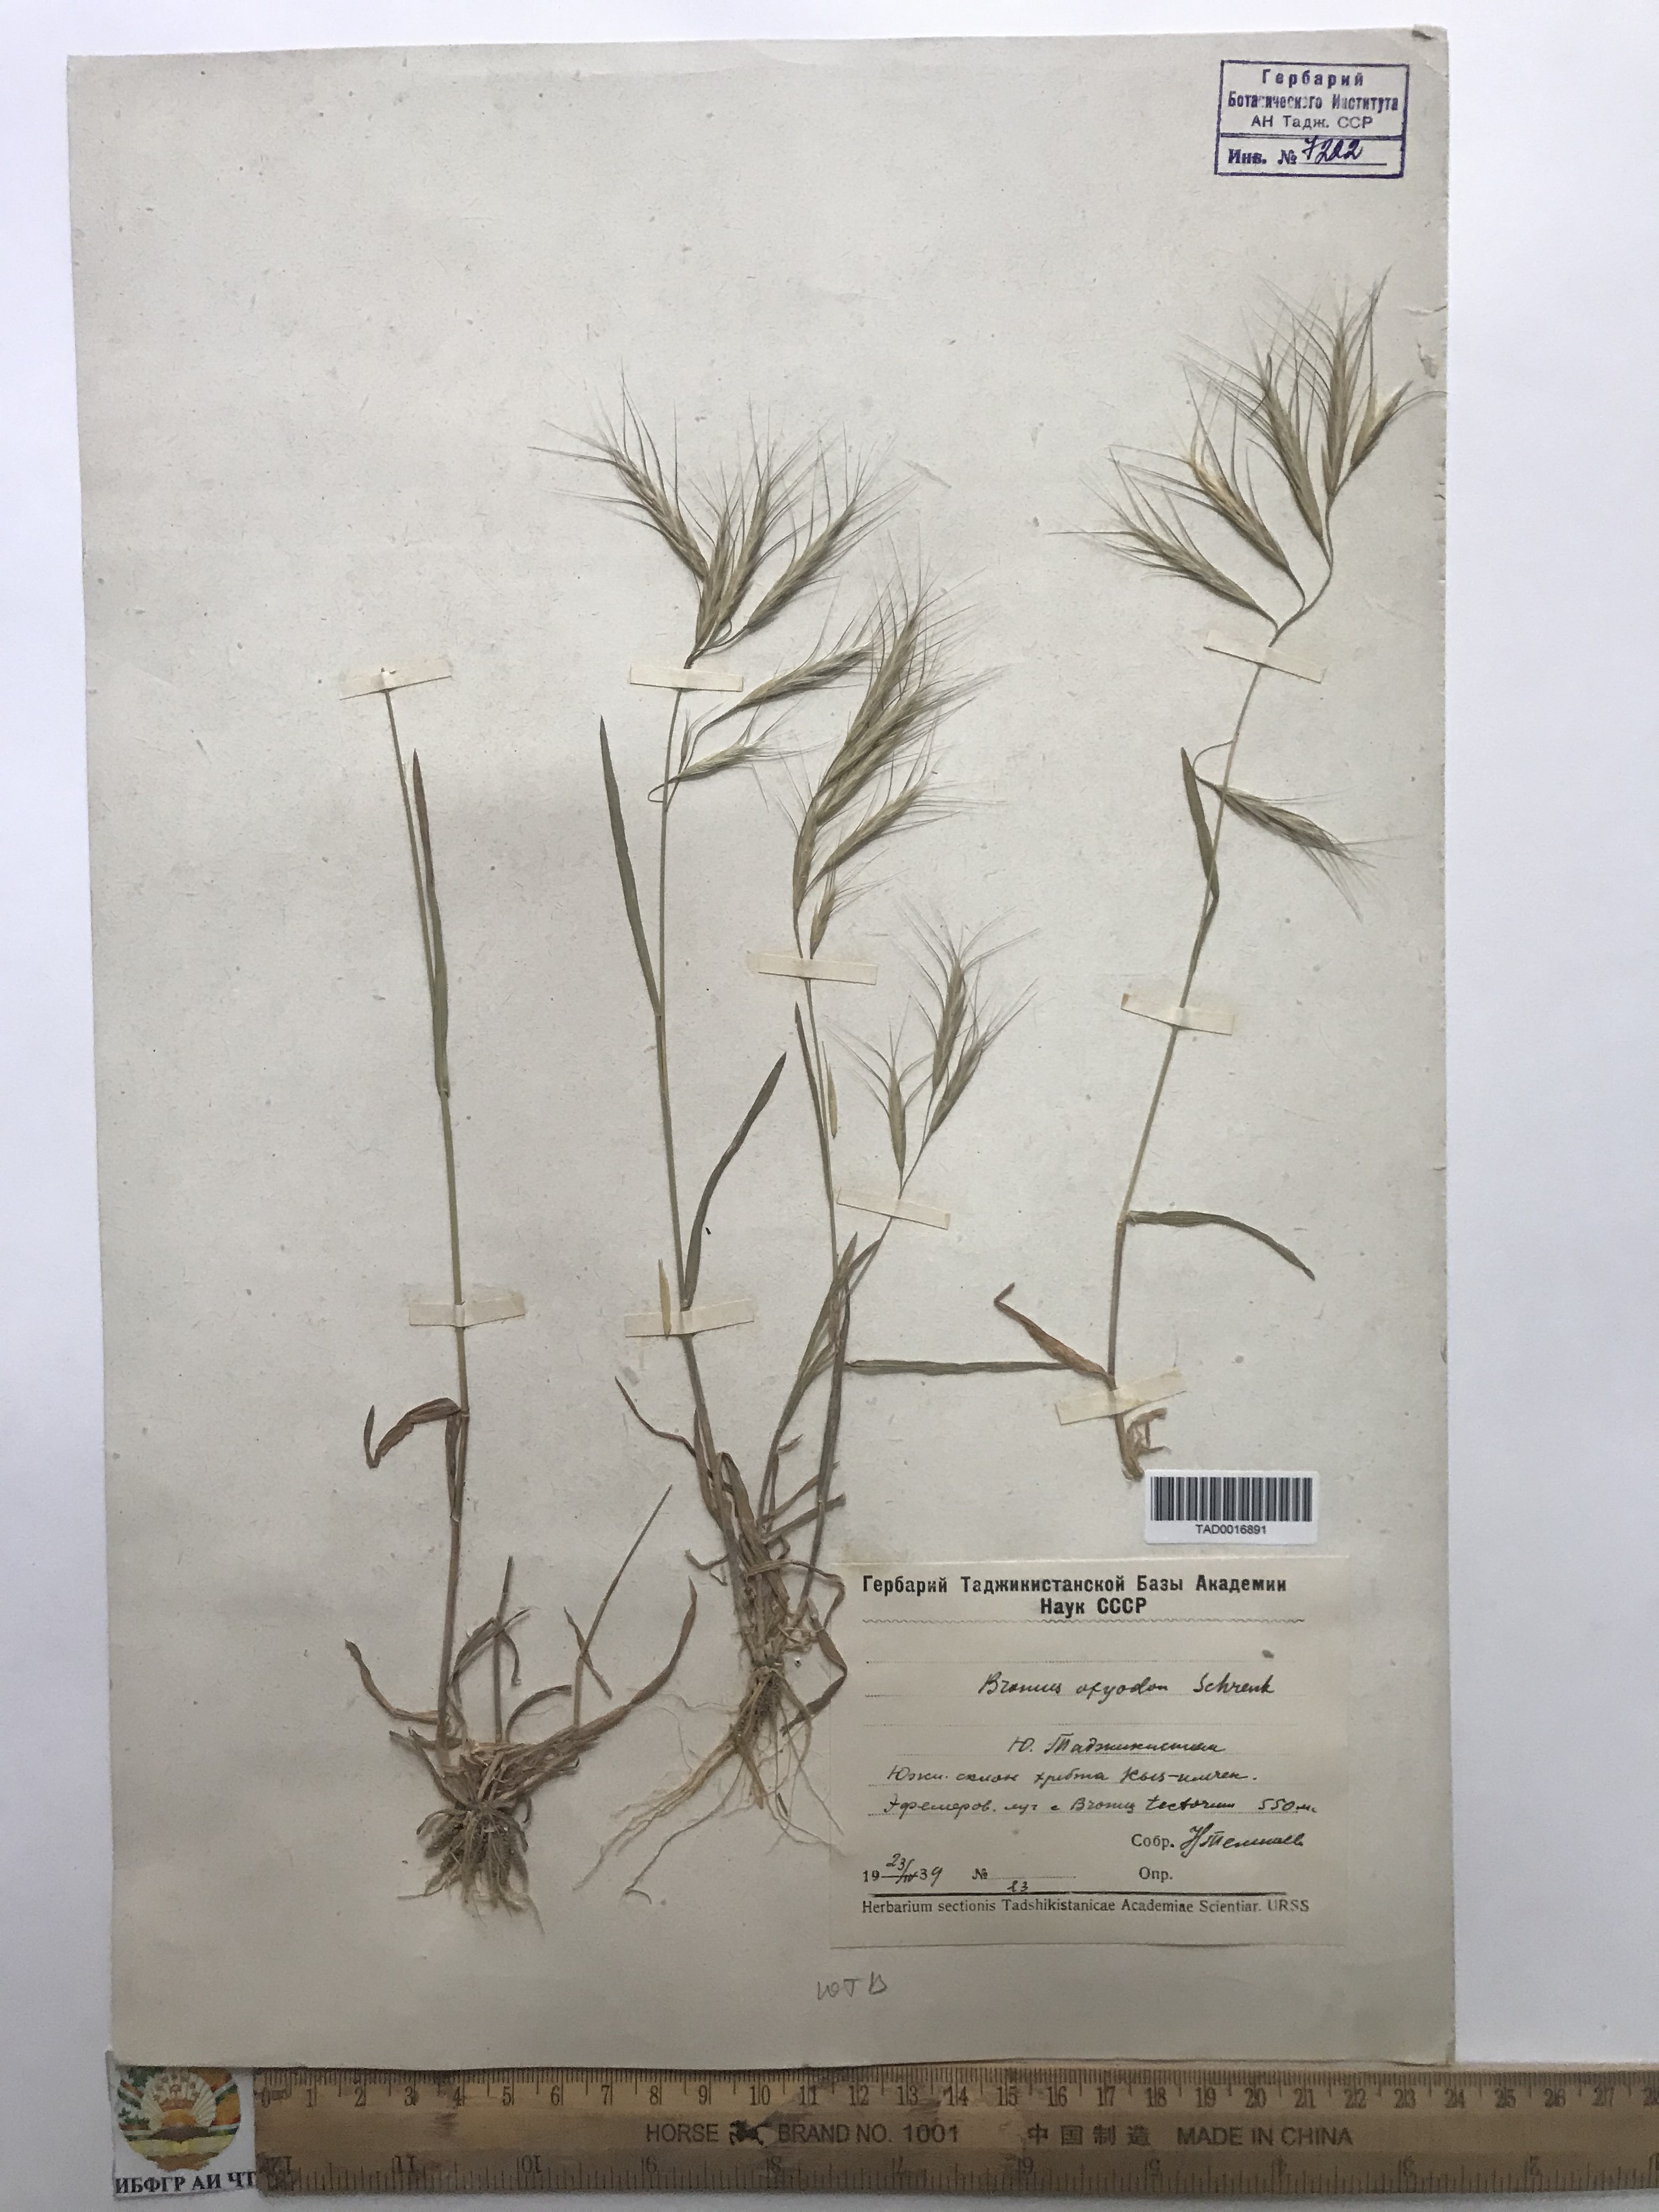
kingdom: Plantae
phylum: Tracheophyta
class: Liliopsida
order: Poales
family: Poaceae
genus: Bromus
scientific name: Bromus oxyodon
